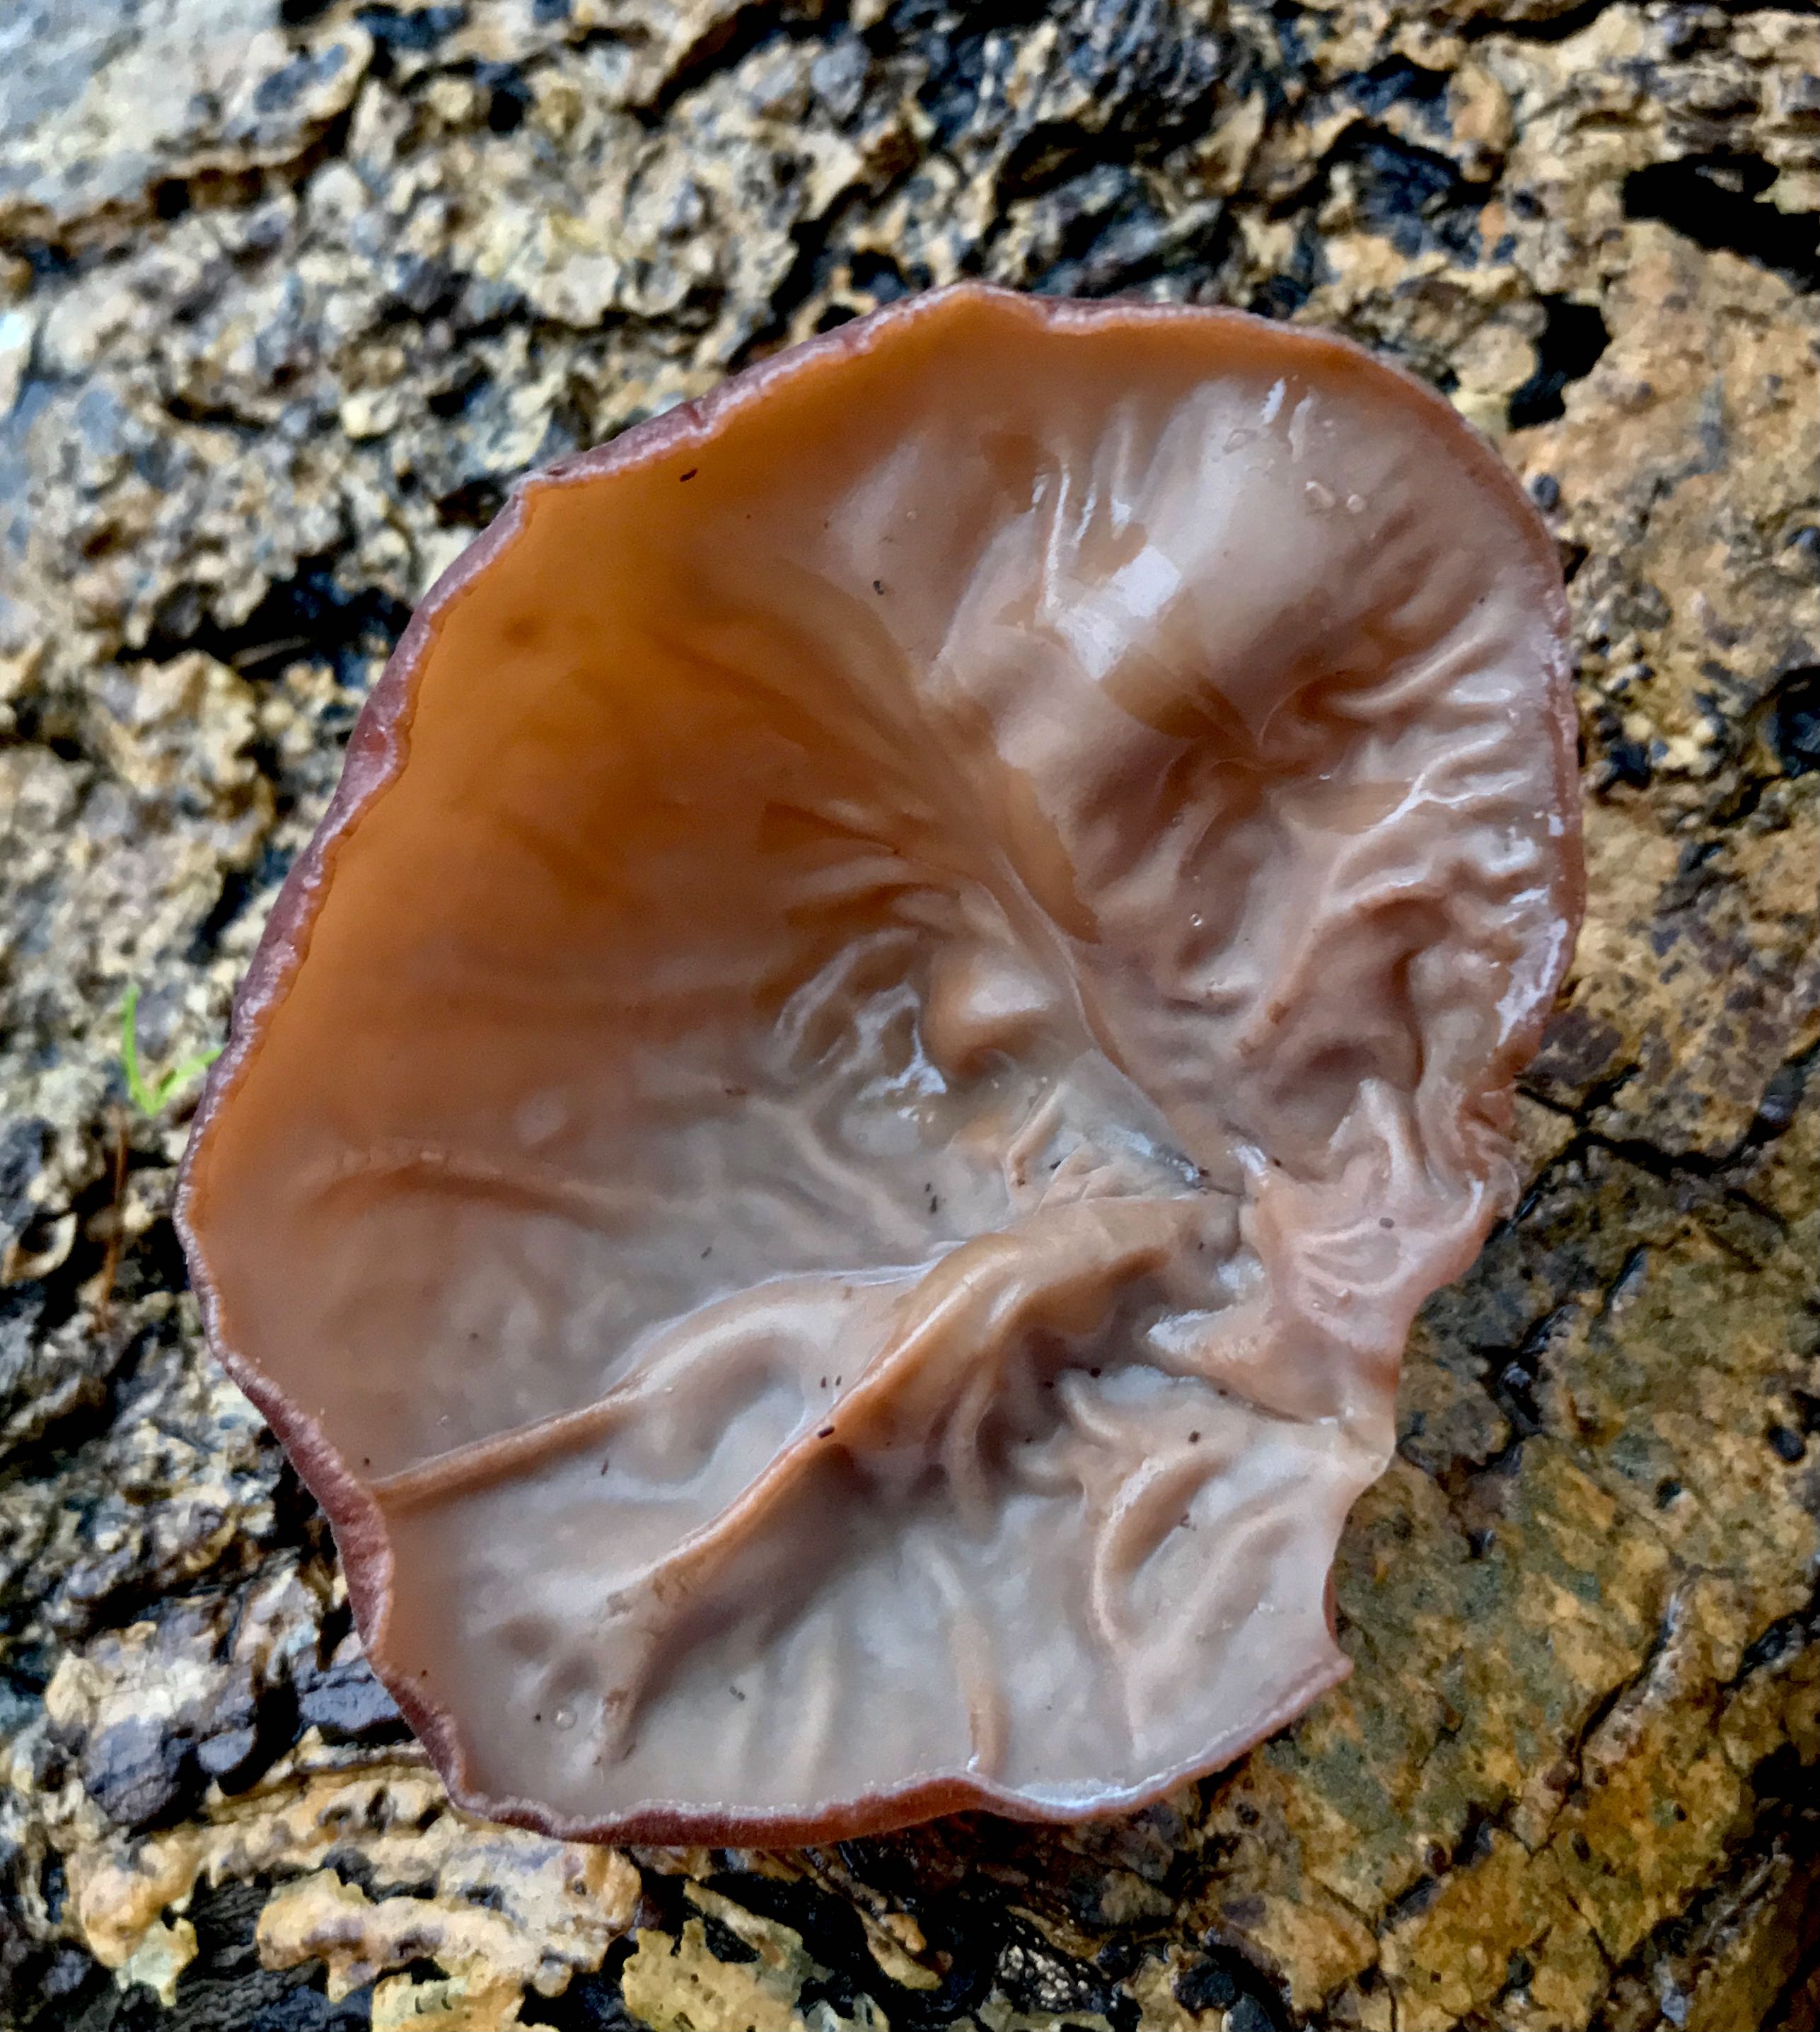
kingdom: Fungi
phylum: Basidiomycota
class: Agaricomycetes
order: Auriculariales
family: Auriculariaceae
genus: Auricularia
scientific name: Auricularia auricula-judae
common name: almindelig judasøre
